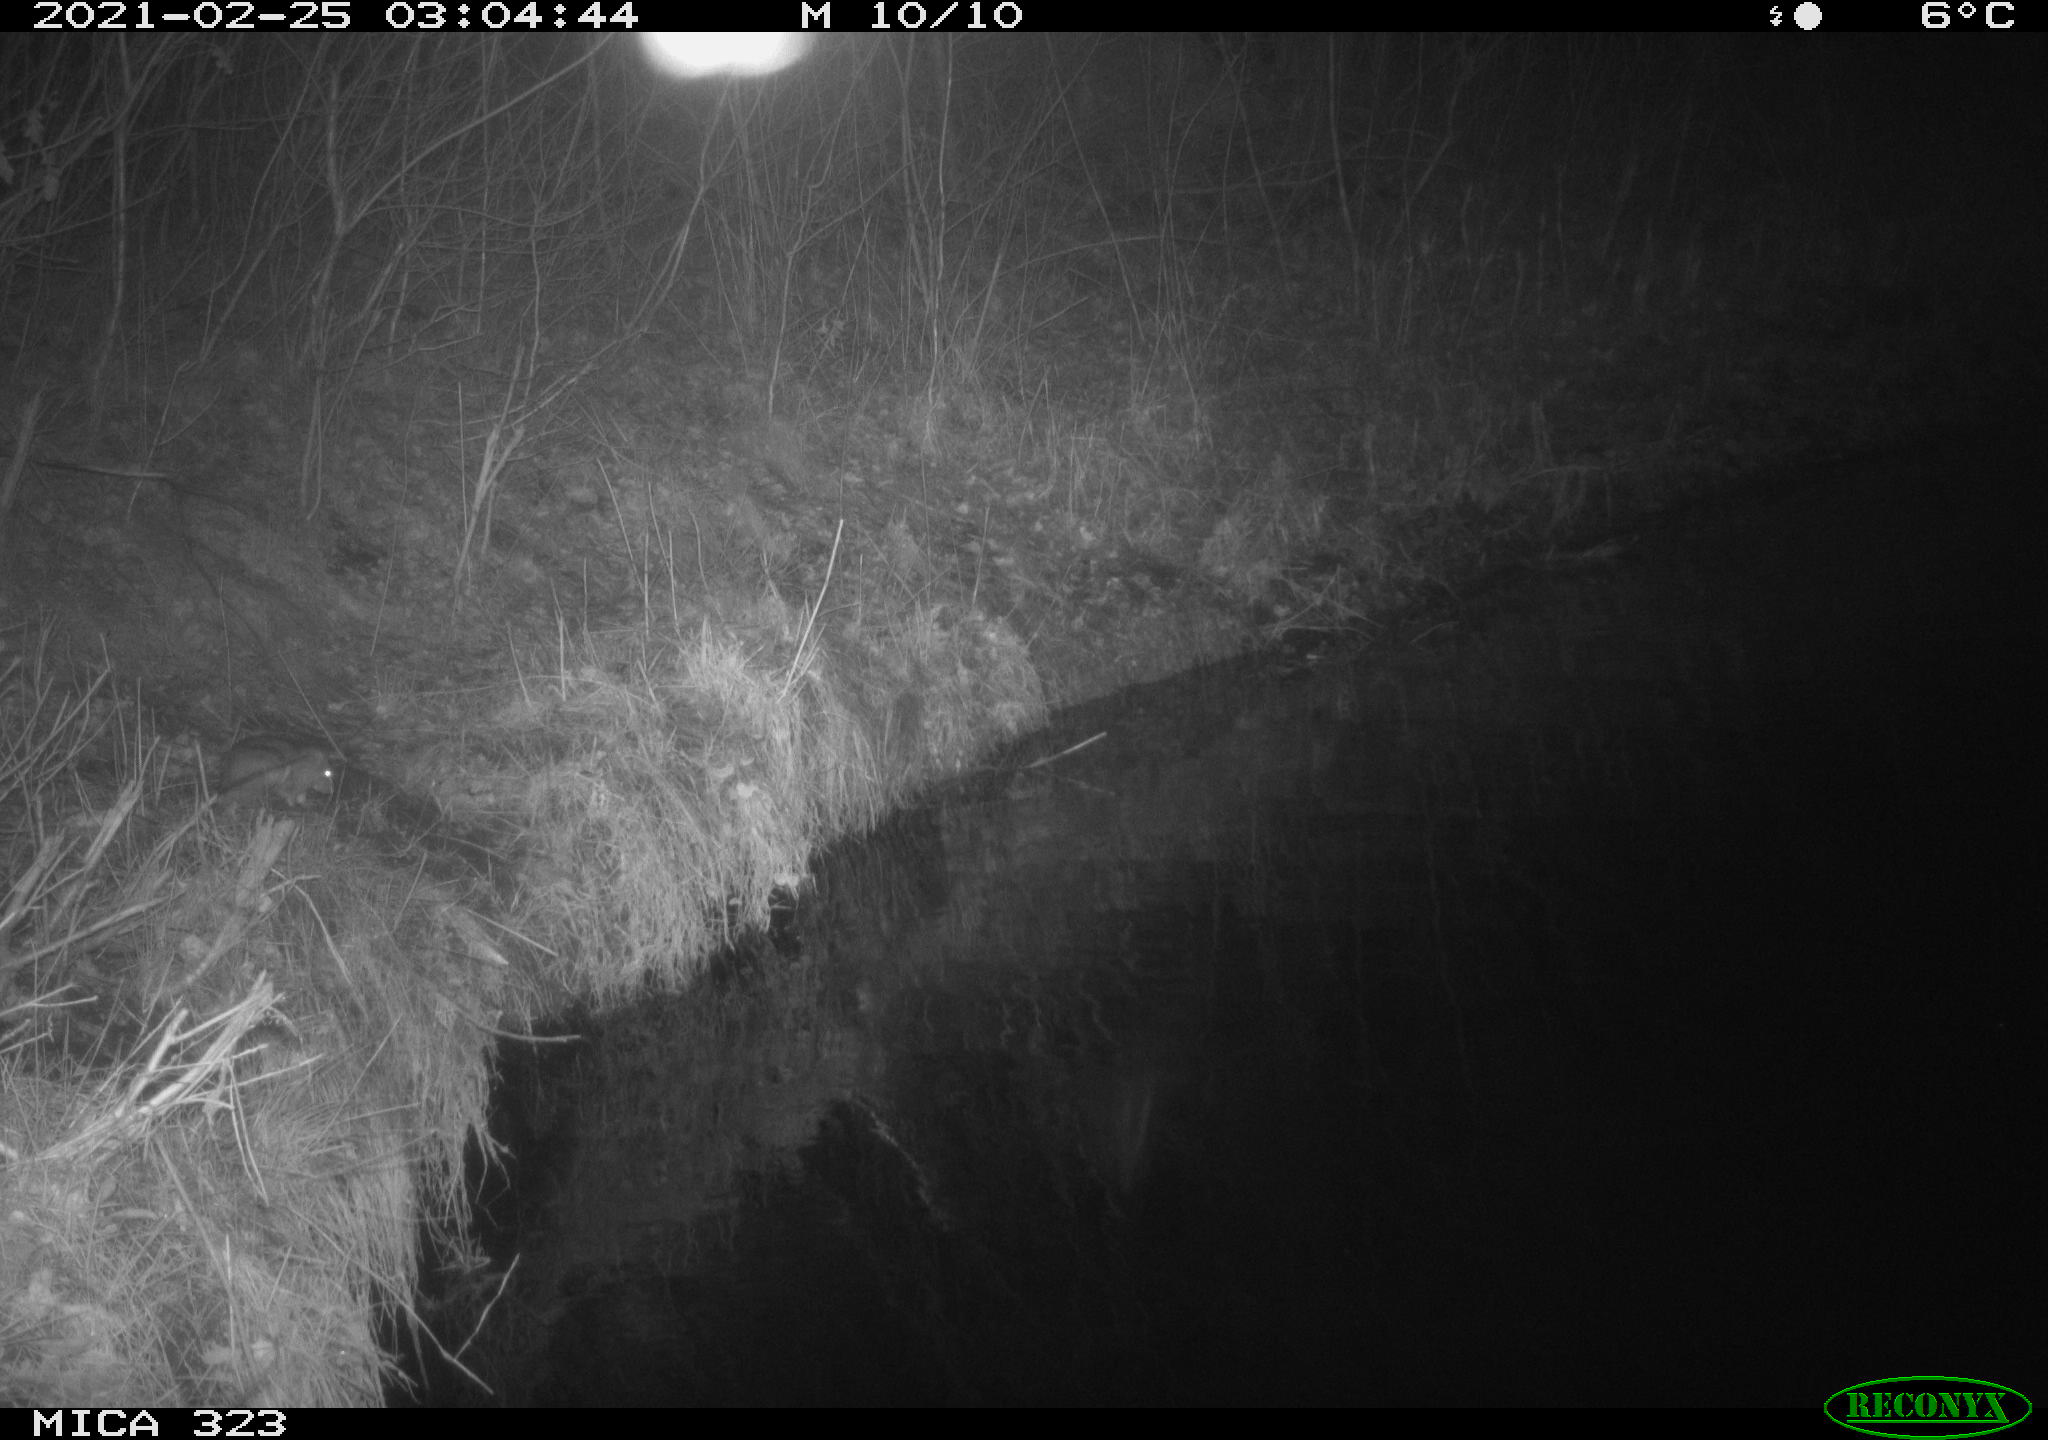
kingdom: Animalia
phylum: Chordata
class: Mammalia
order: Rodentia
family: Muridae
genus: Rattus
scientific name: Rattus norvegicus
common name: Brown rat
